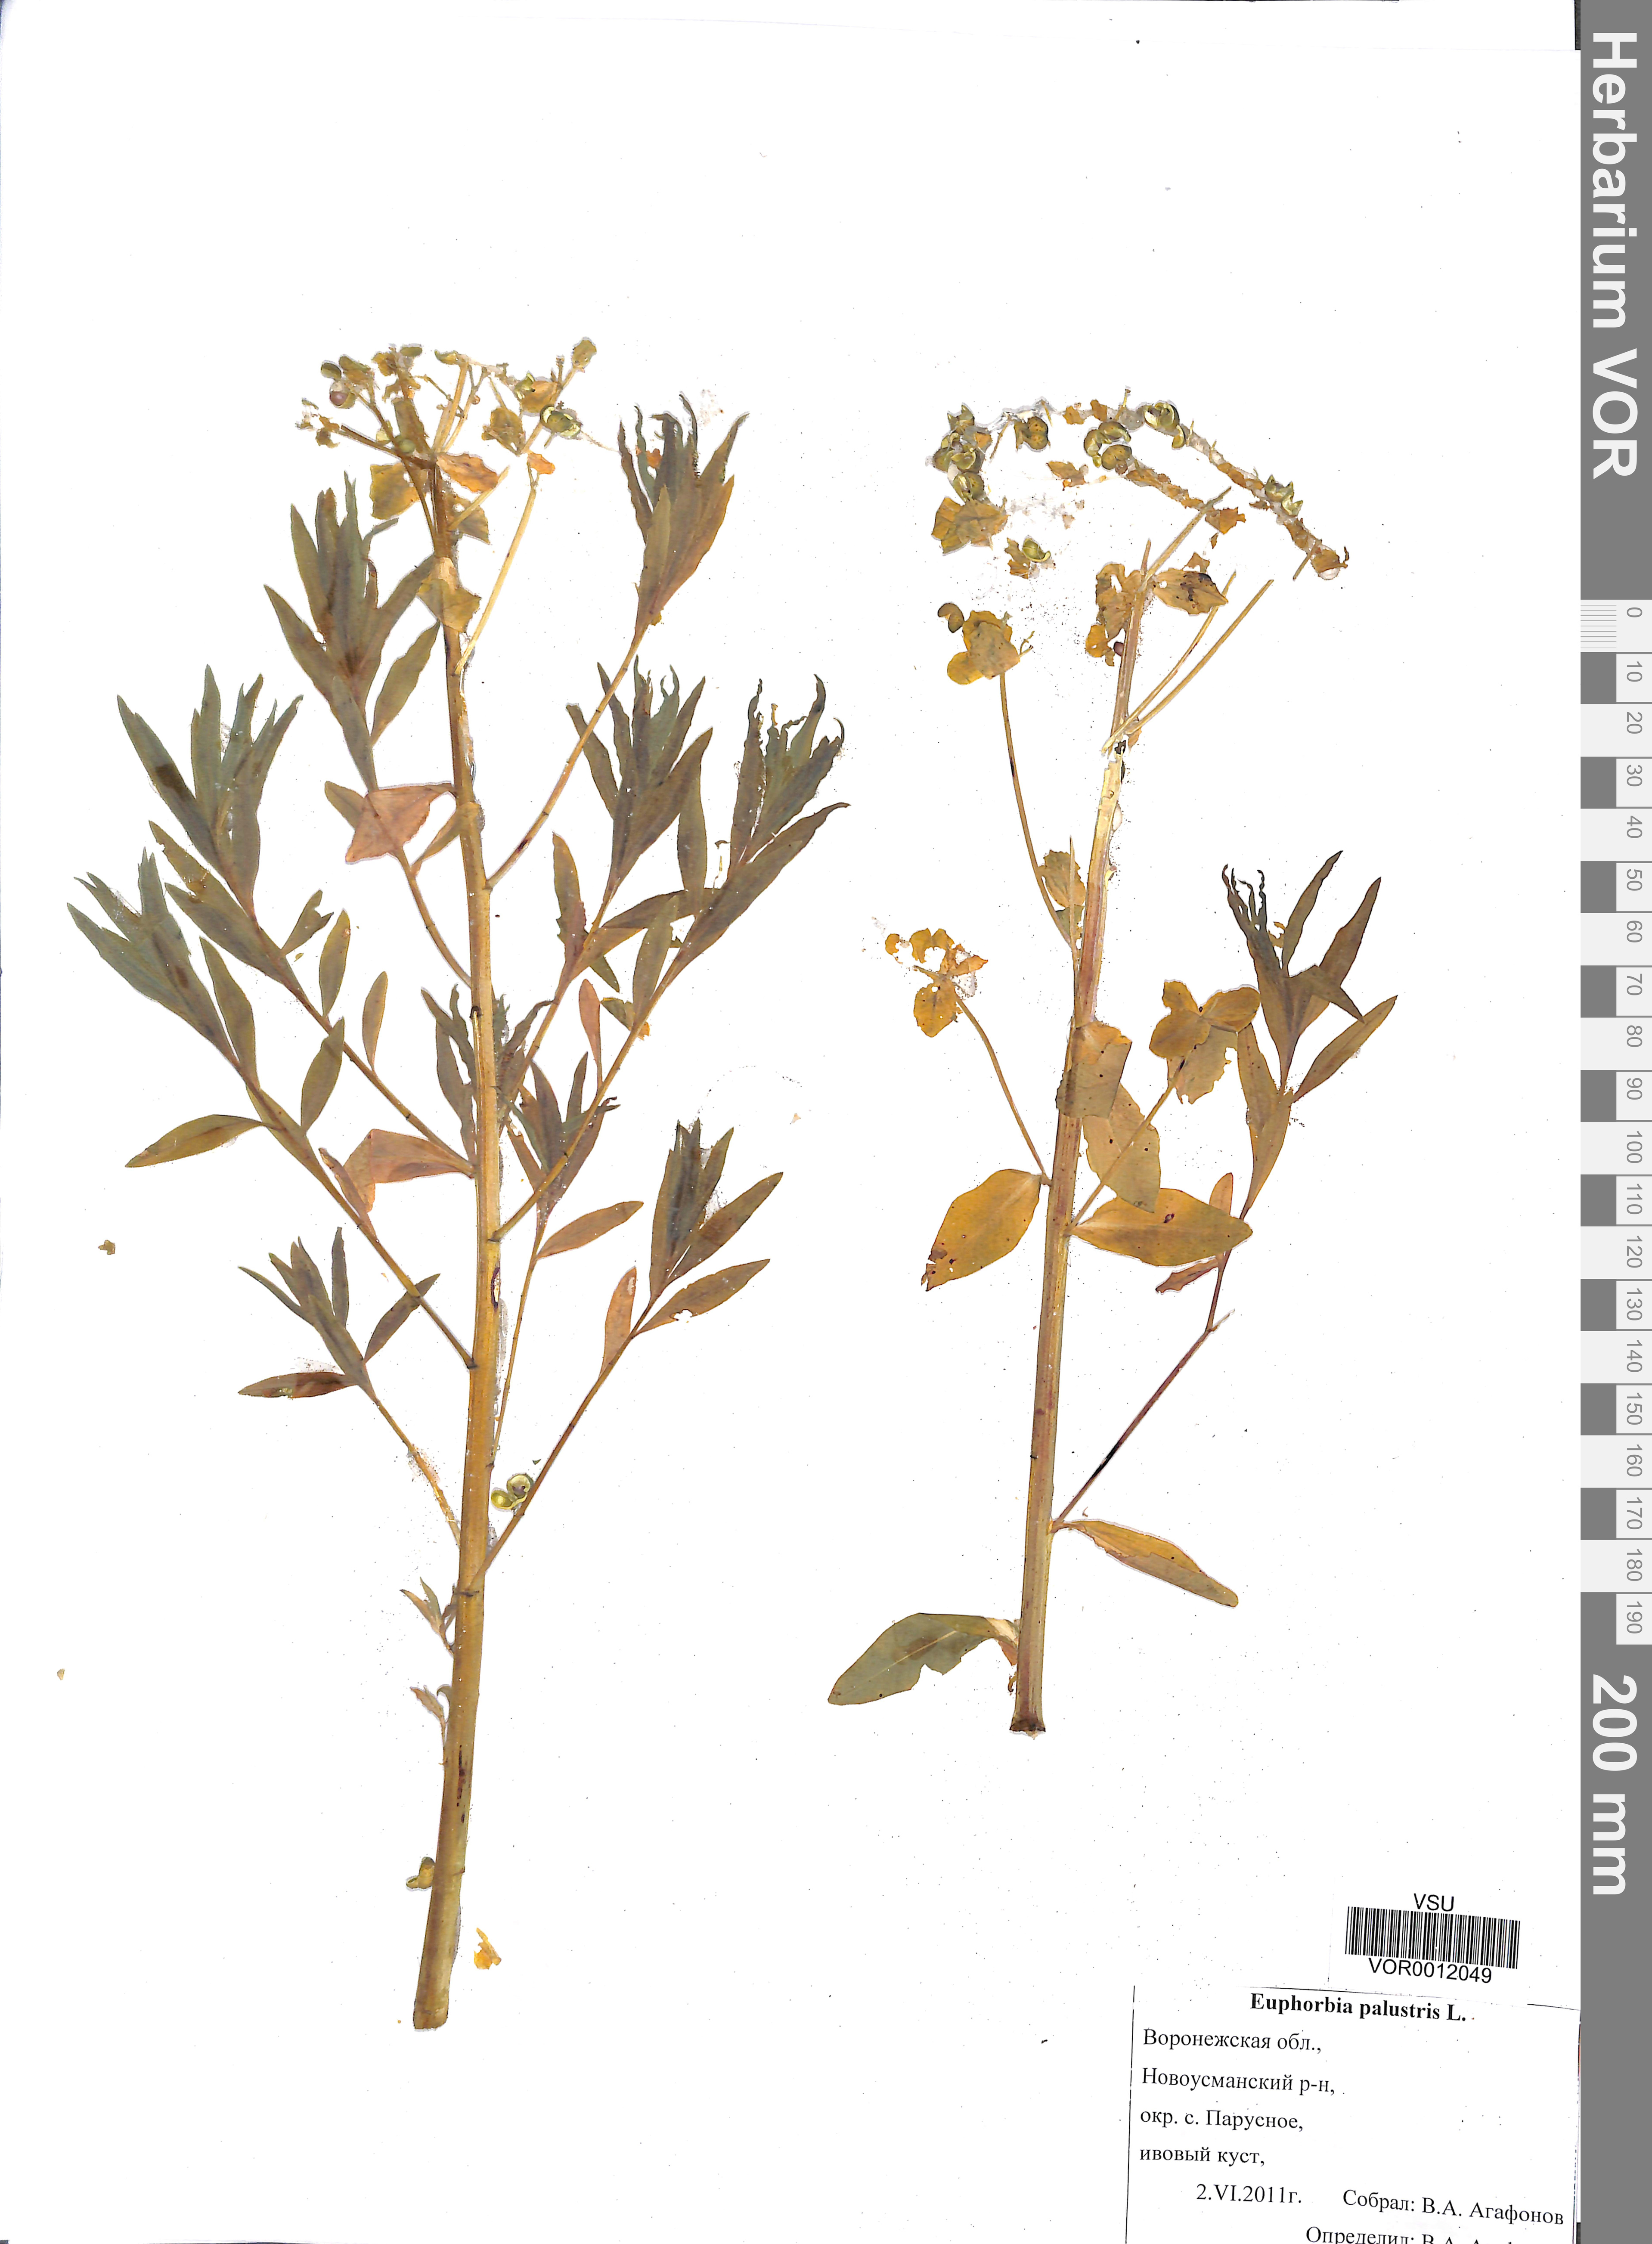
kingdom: Plantae
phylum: Tracheophyta
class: Magnoliopsida
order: Malpighiales
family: Euphorbiaceae
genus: Euphorbia
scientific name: Euphorbia palustris
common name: Marsh spurge
